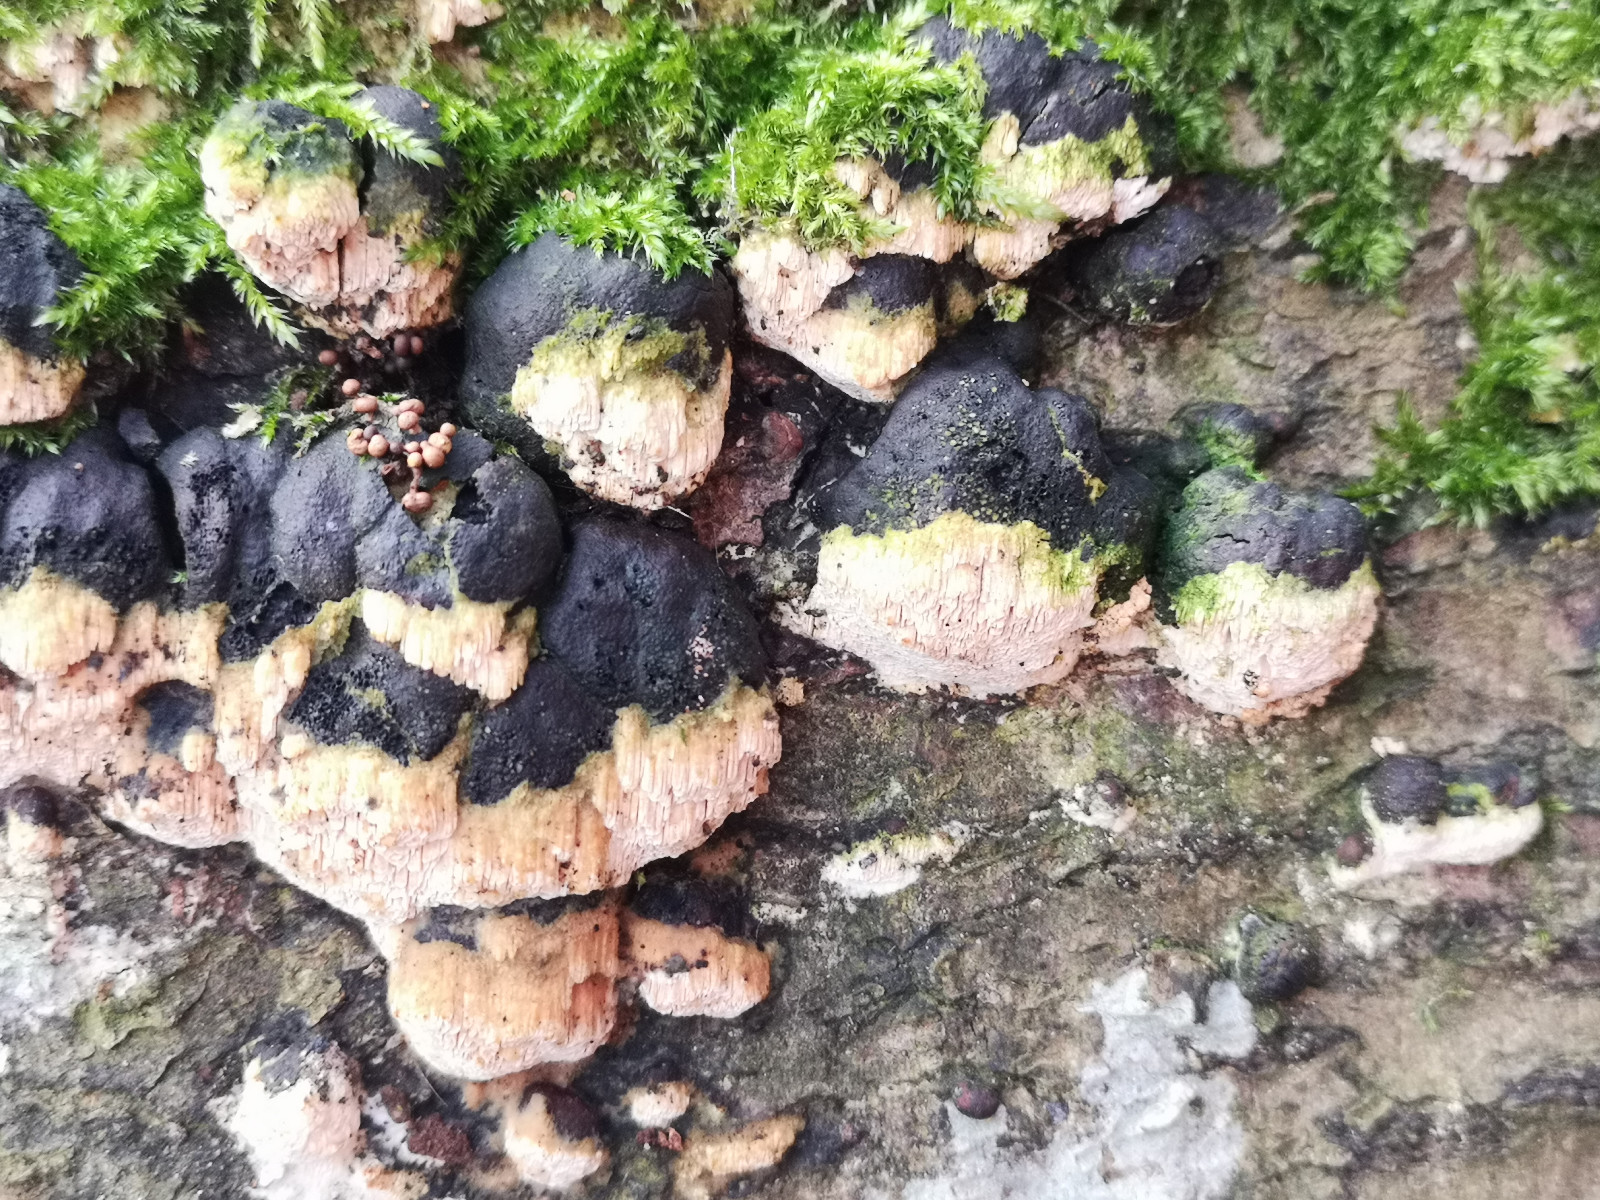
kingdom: Fungi
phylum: Basidiomycota
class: Agaricomycetes
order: Hymenochaetales
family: Schizoporaceae
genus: Xylodon
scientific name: Xylodon
